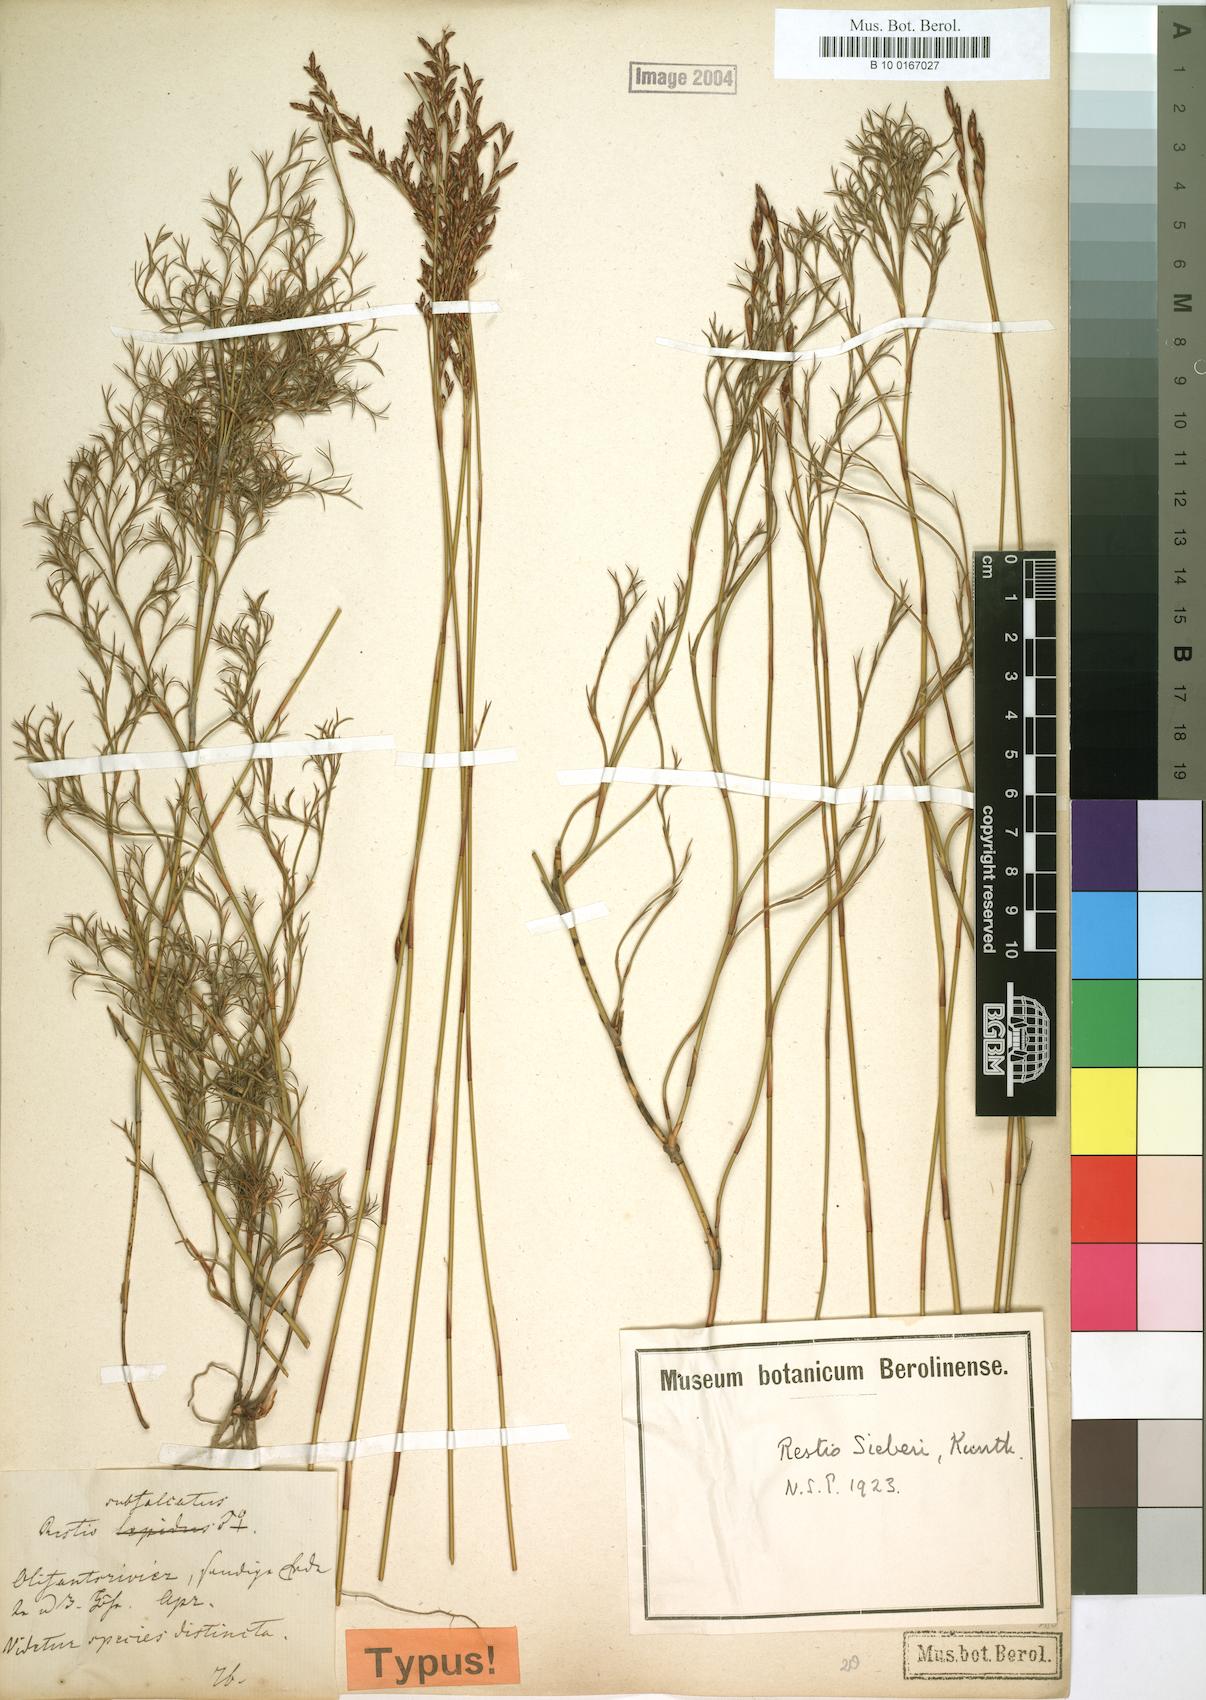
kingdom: Plantae
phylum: Tracheophyta
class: Liliopsida
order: Poales
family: Restionaceae
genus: Restio
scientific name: Restio sieberi
